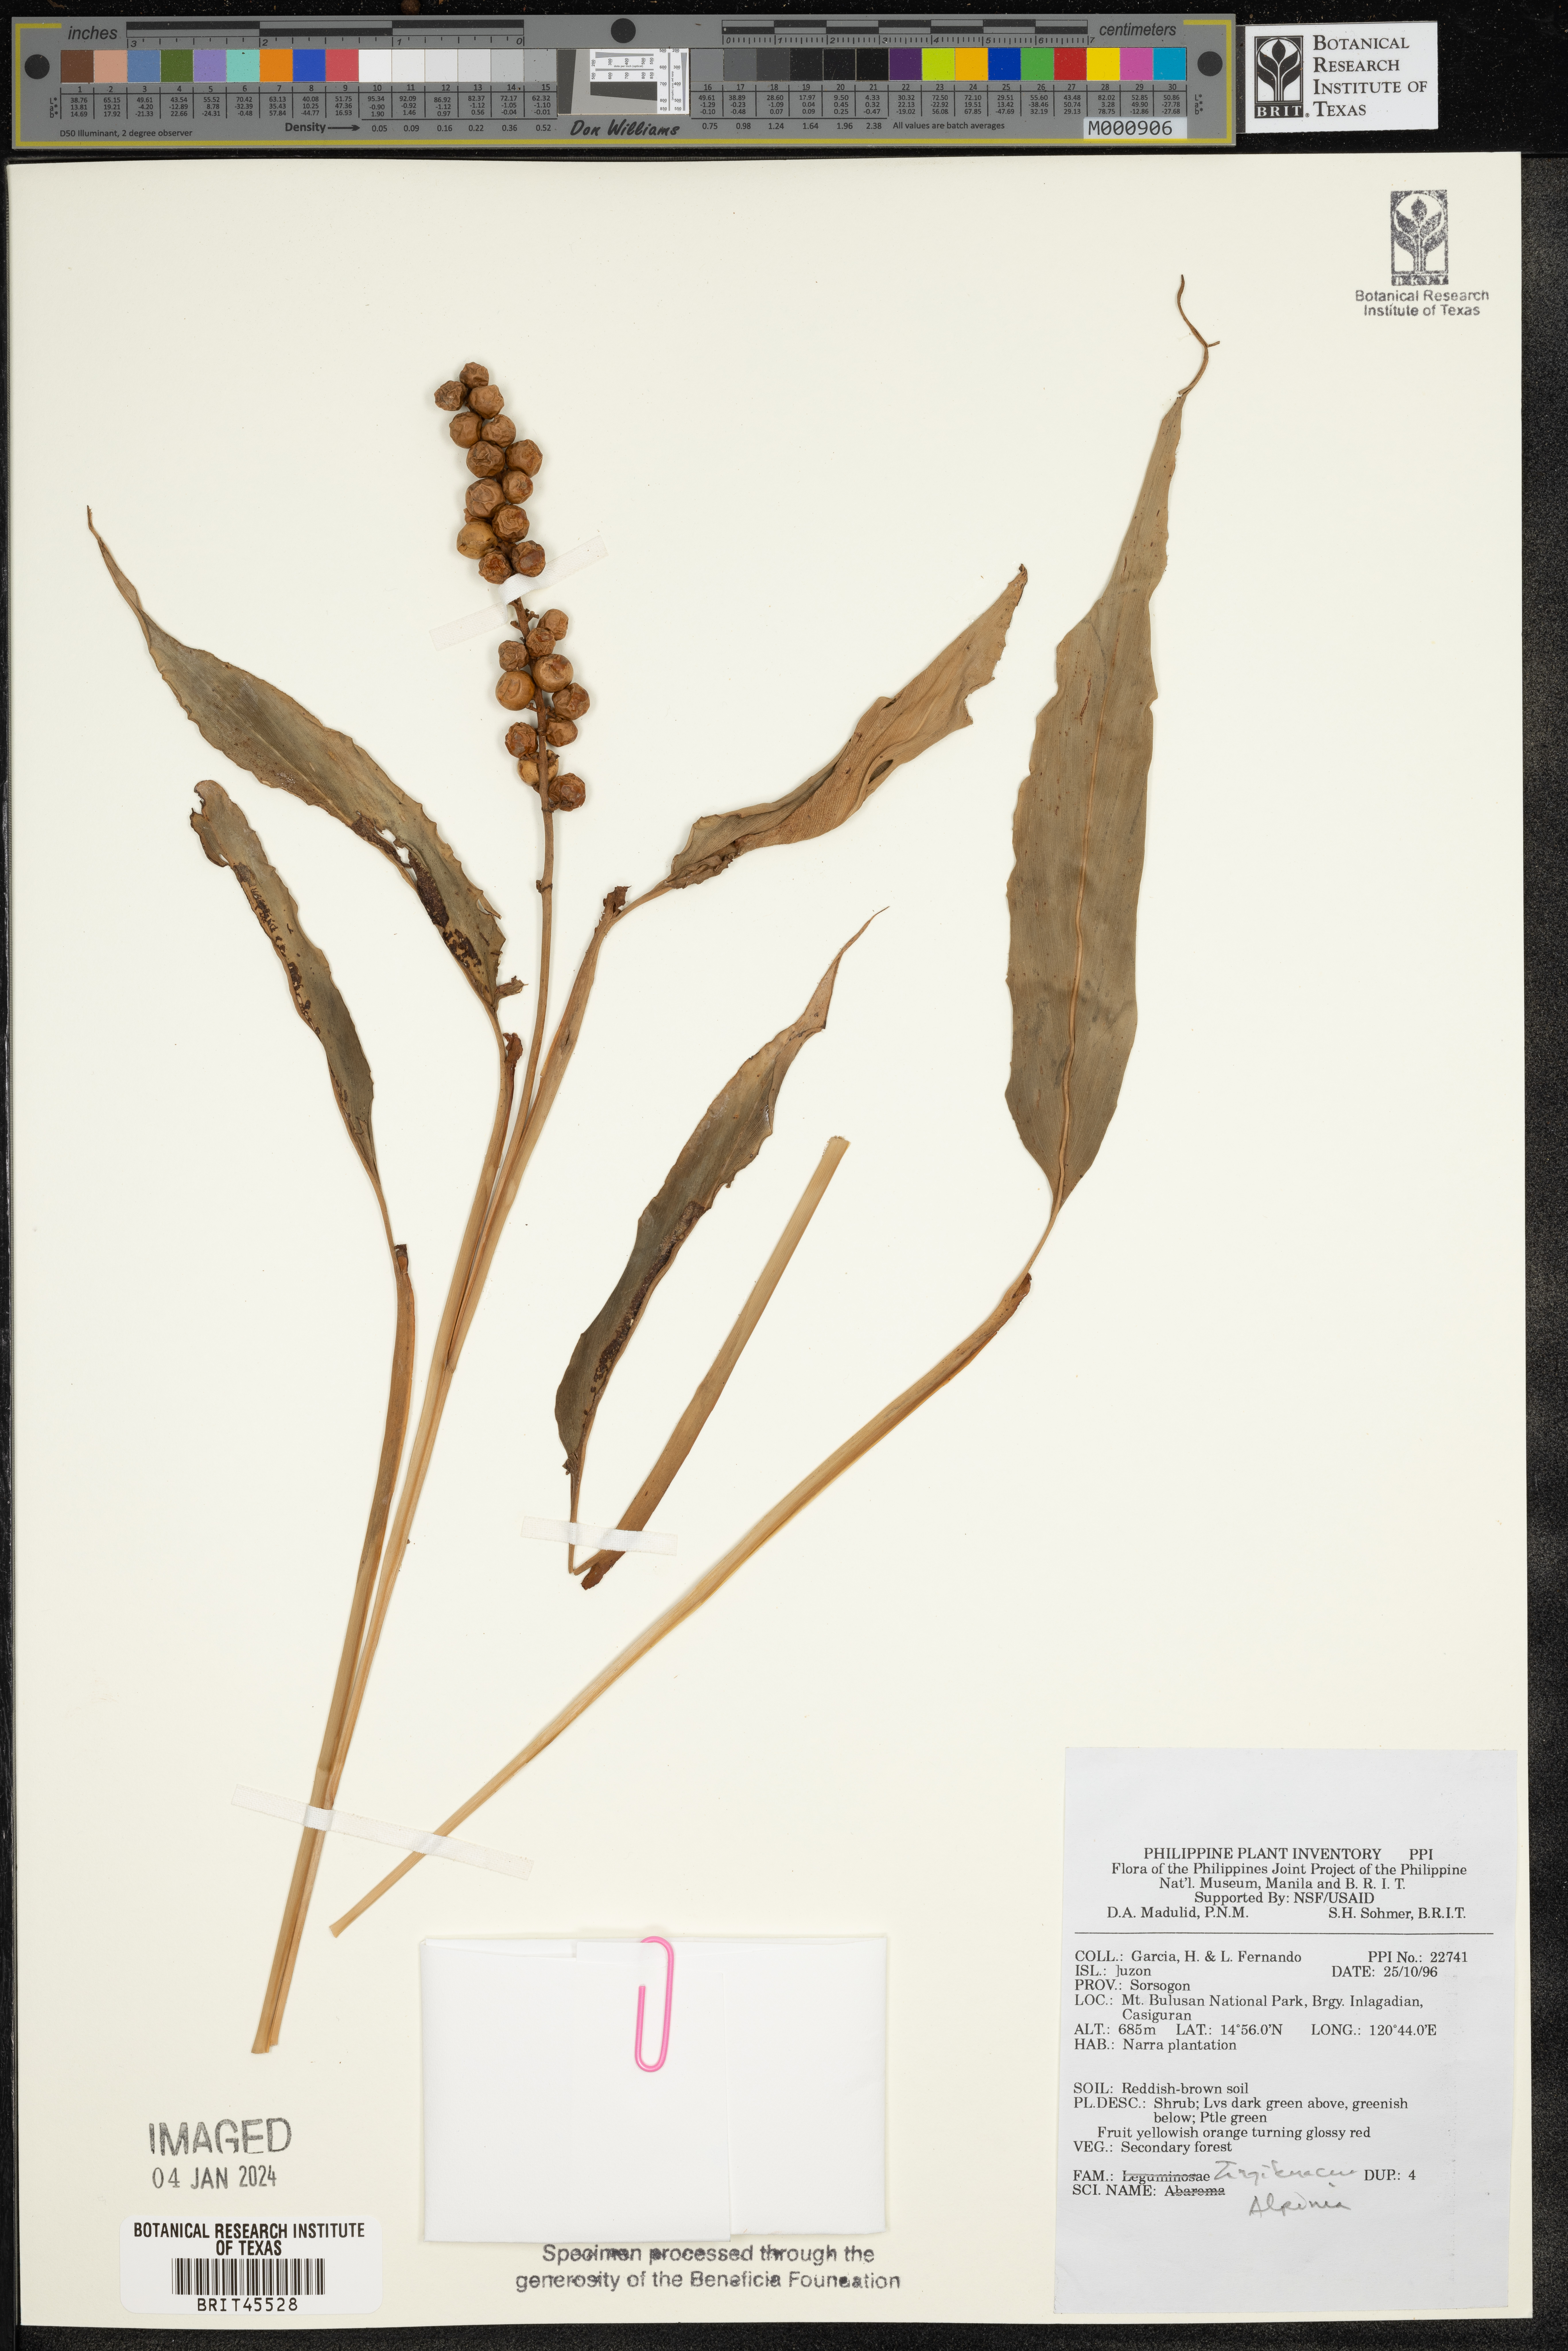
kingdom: Plantae
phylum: Tracheophyta
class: Liliopsida
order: Zingiberales
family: Zingiberaceae
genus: Alpinia
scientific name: Alpinia
